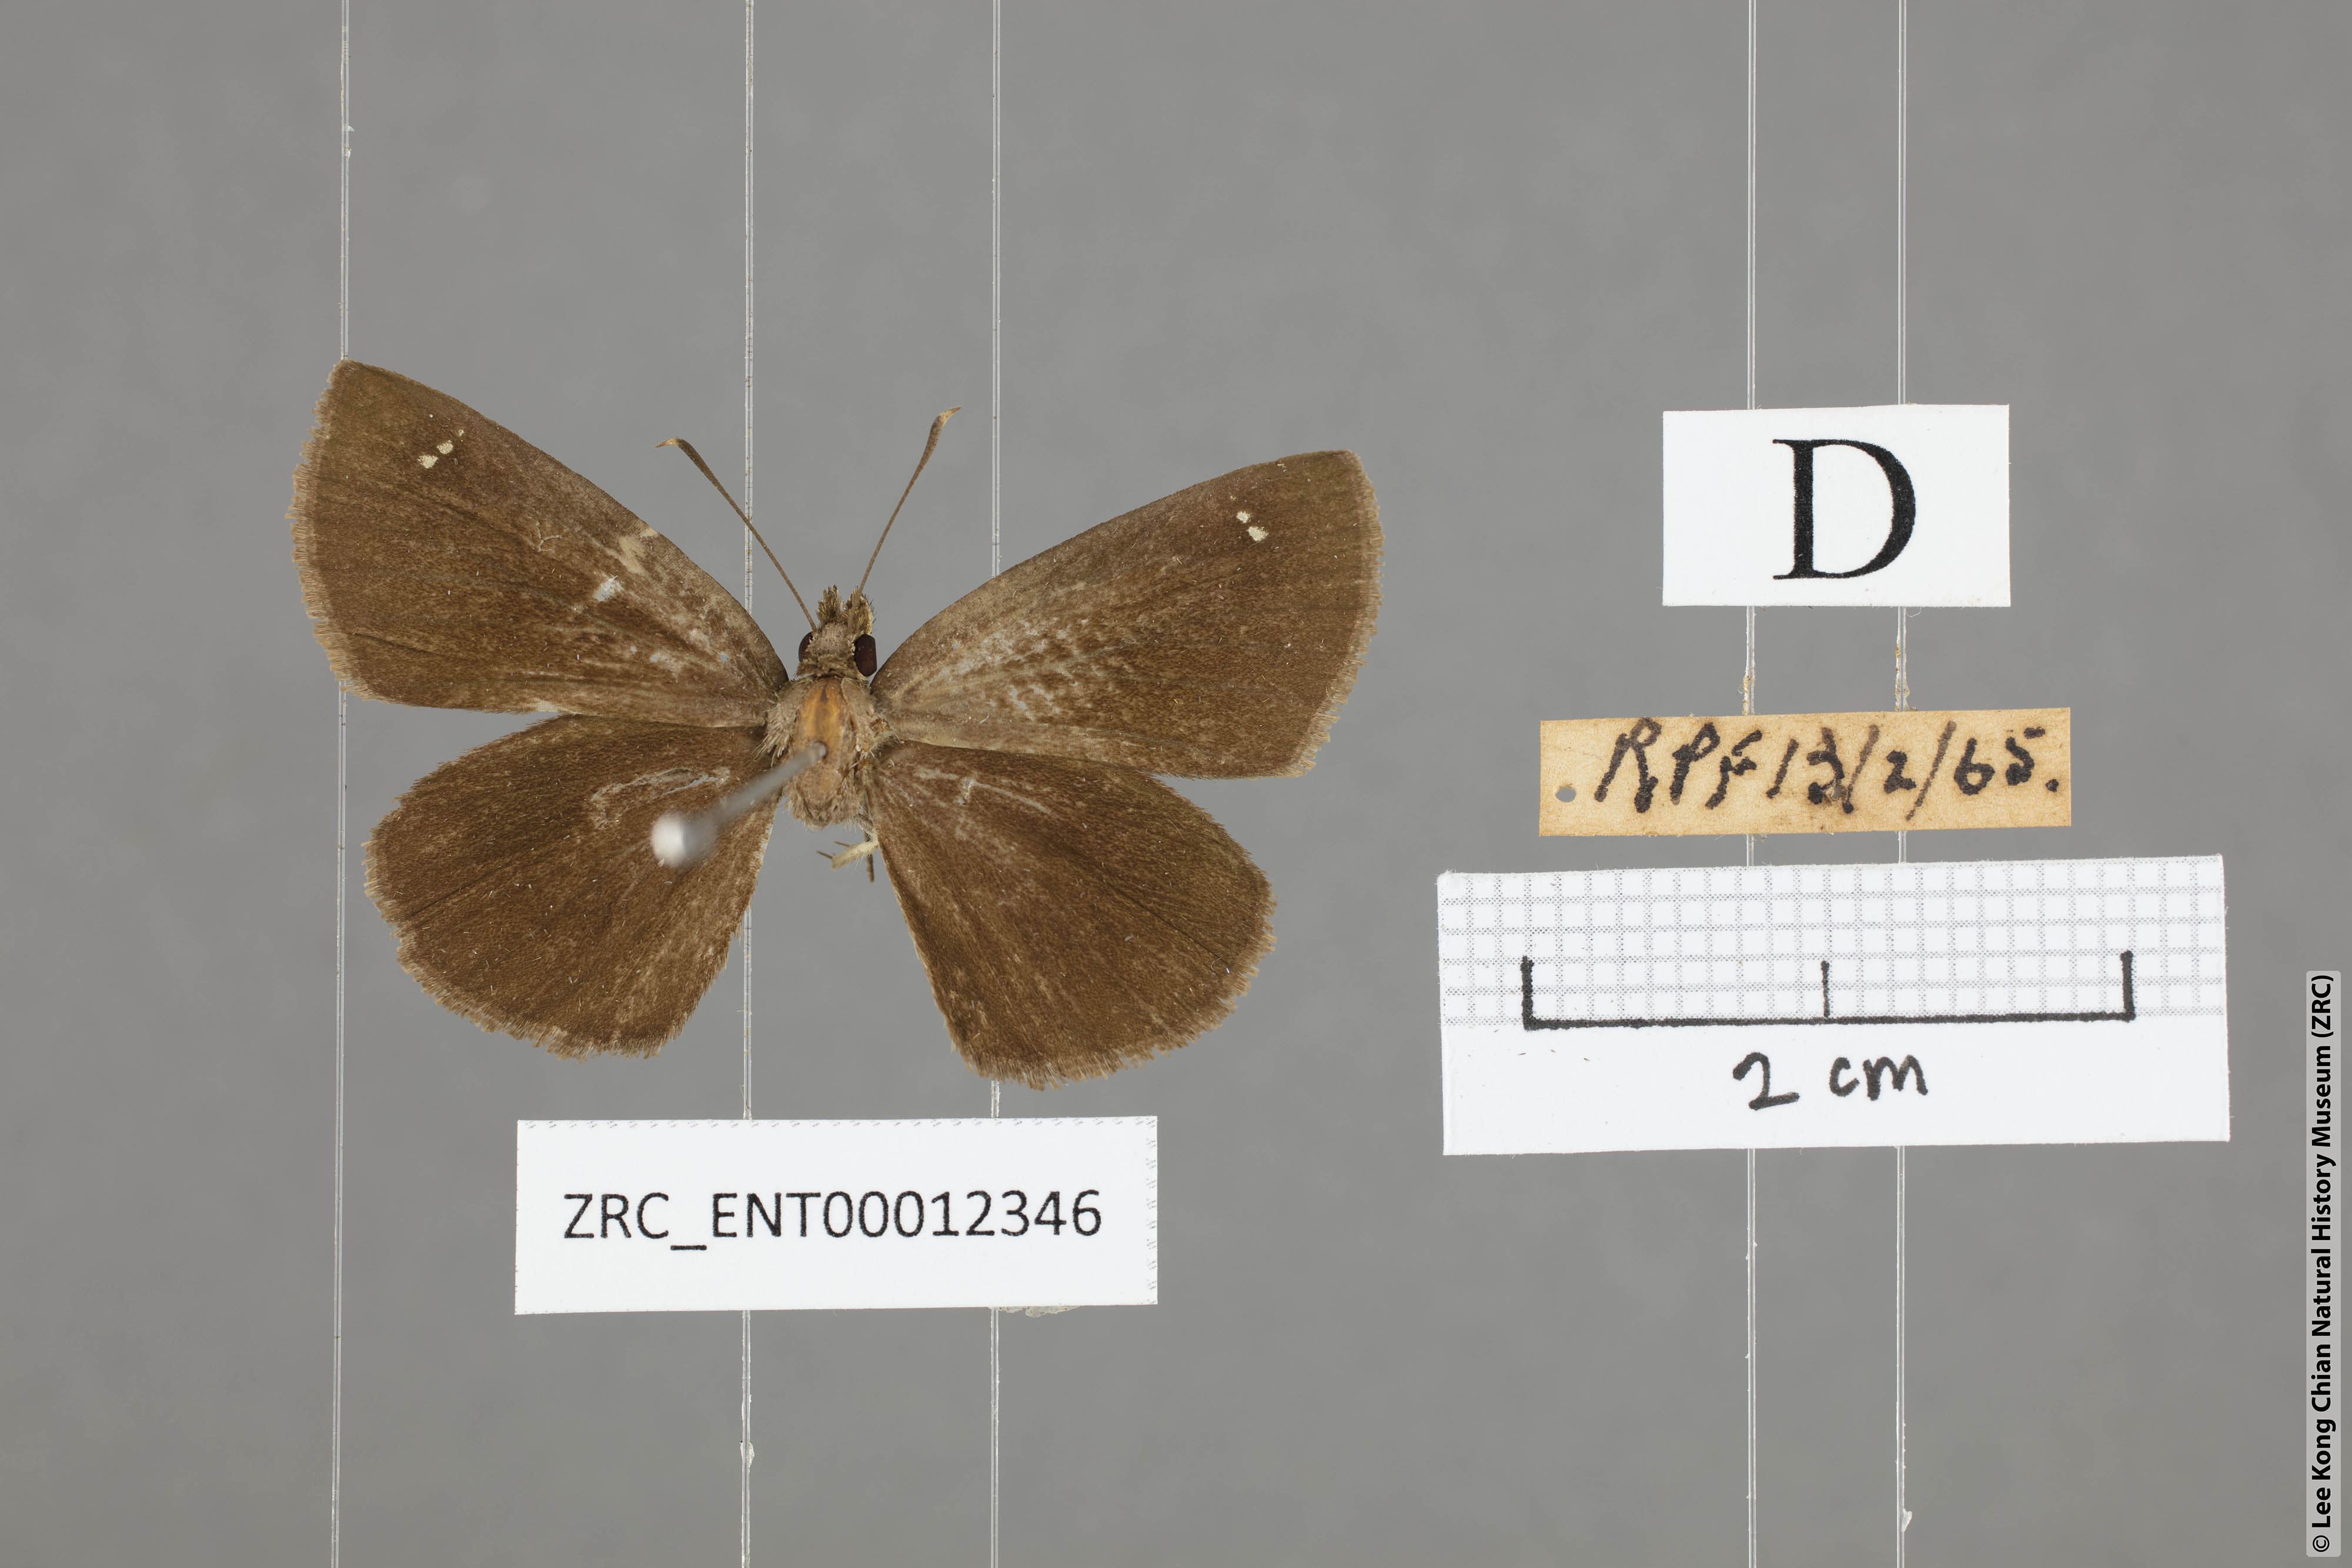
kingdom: Animalia
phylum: Arthropoda
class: Insecta
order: Lepidoptera
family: Hesperiidae
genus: Astictopterus
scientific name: Astictopterus jama
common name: Forest hopper
